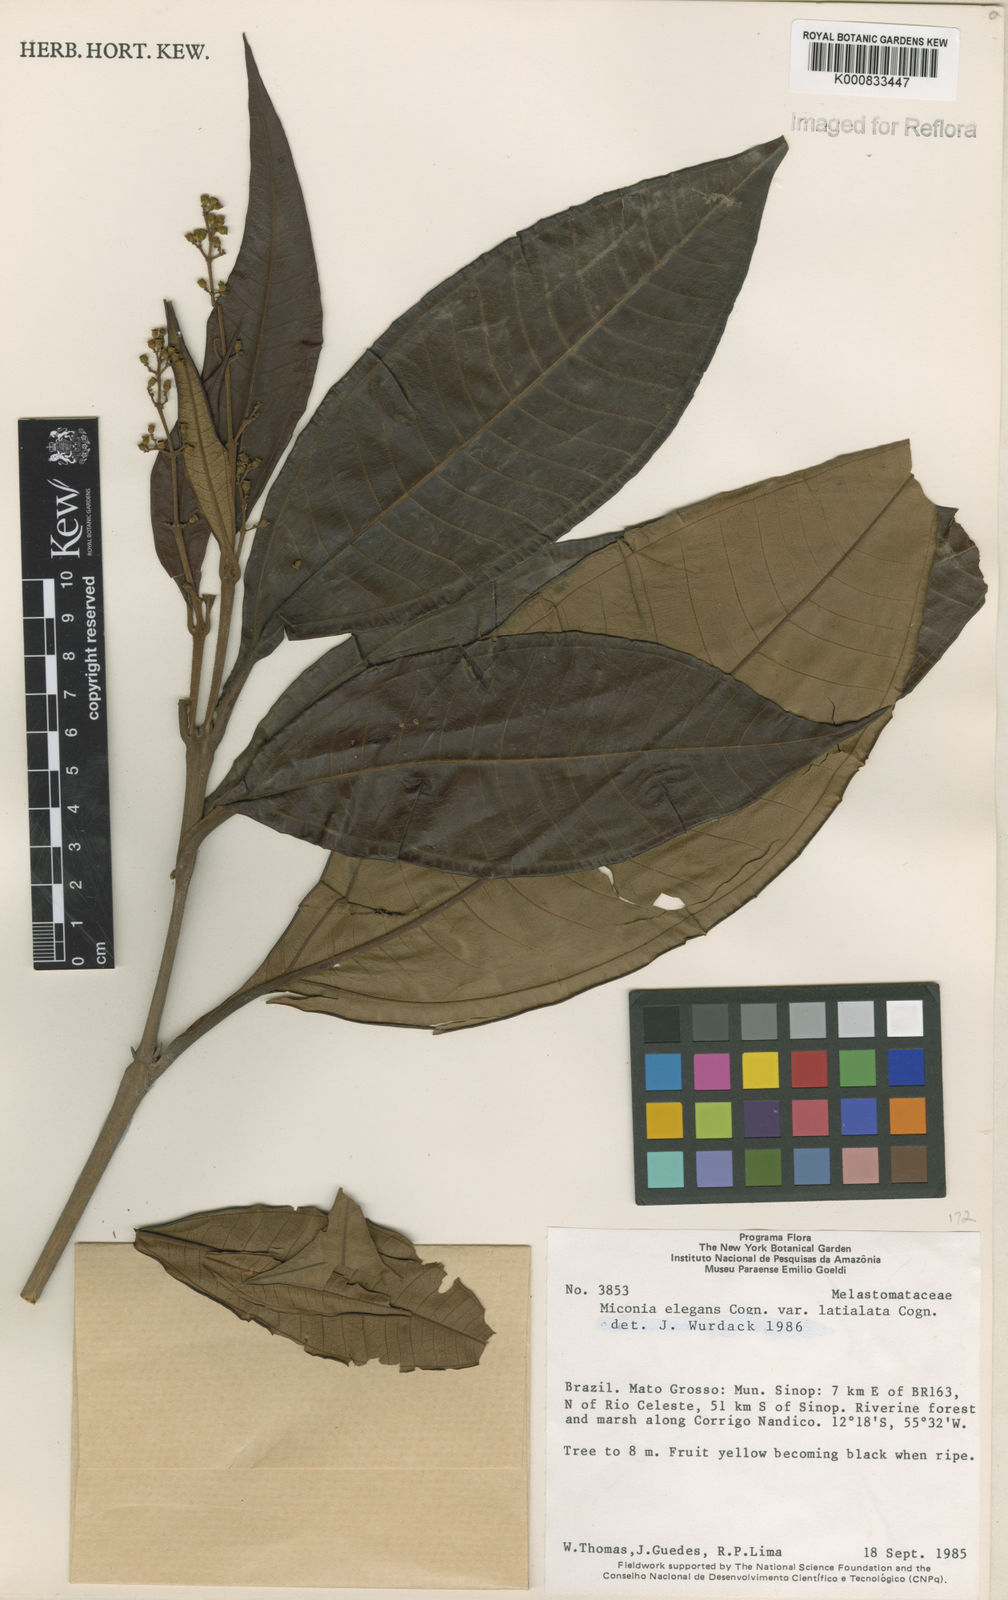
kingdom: Plantae
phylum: Tracheophyta
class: Magnoliopsida
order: Myrtales
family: Melastomataceae
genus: Miconia
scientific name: Miconia elegans
